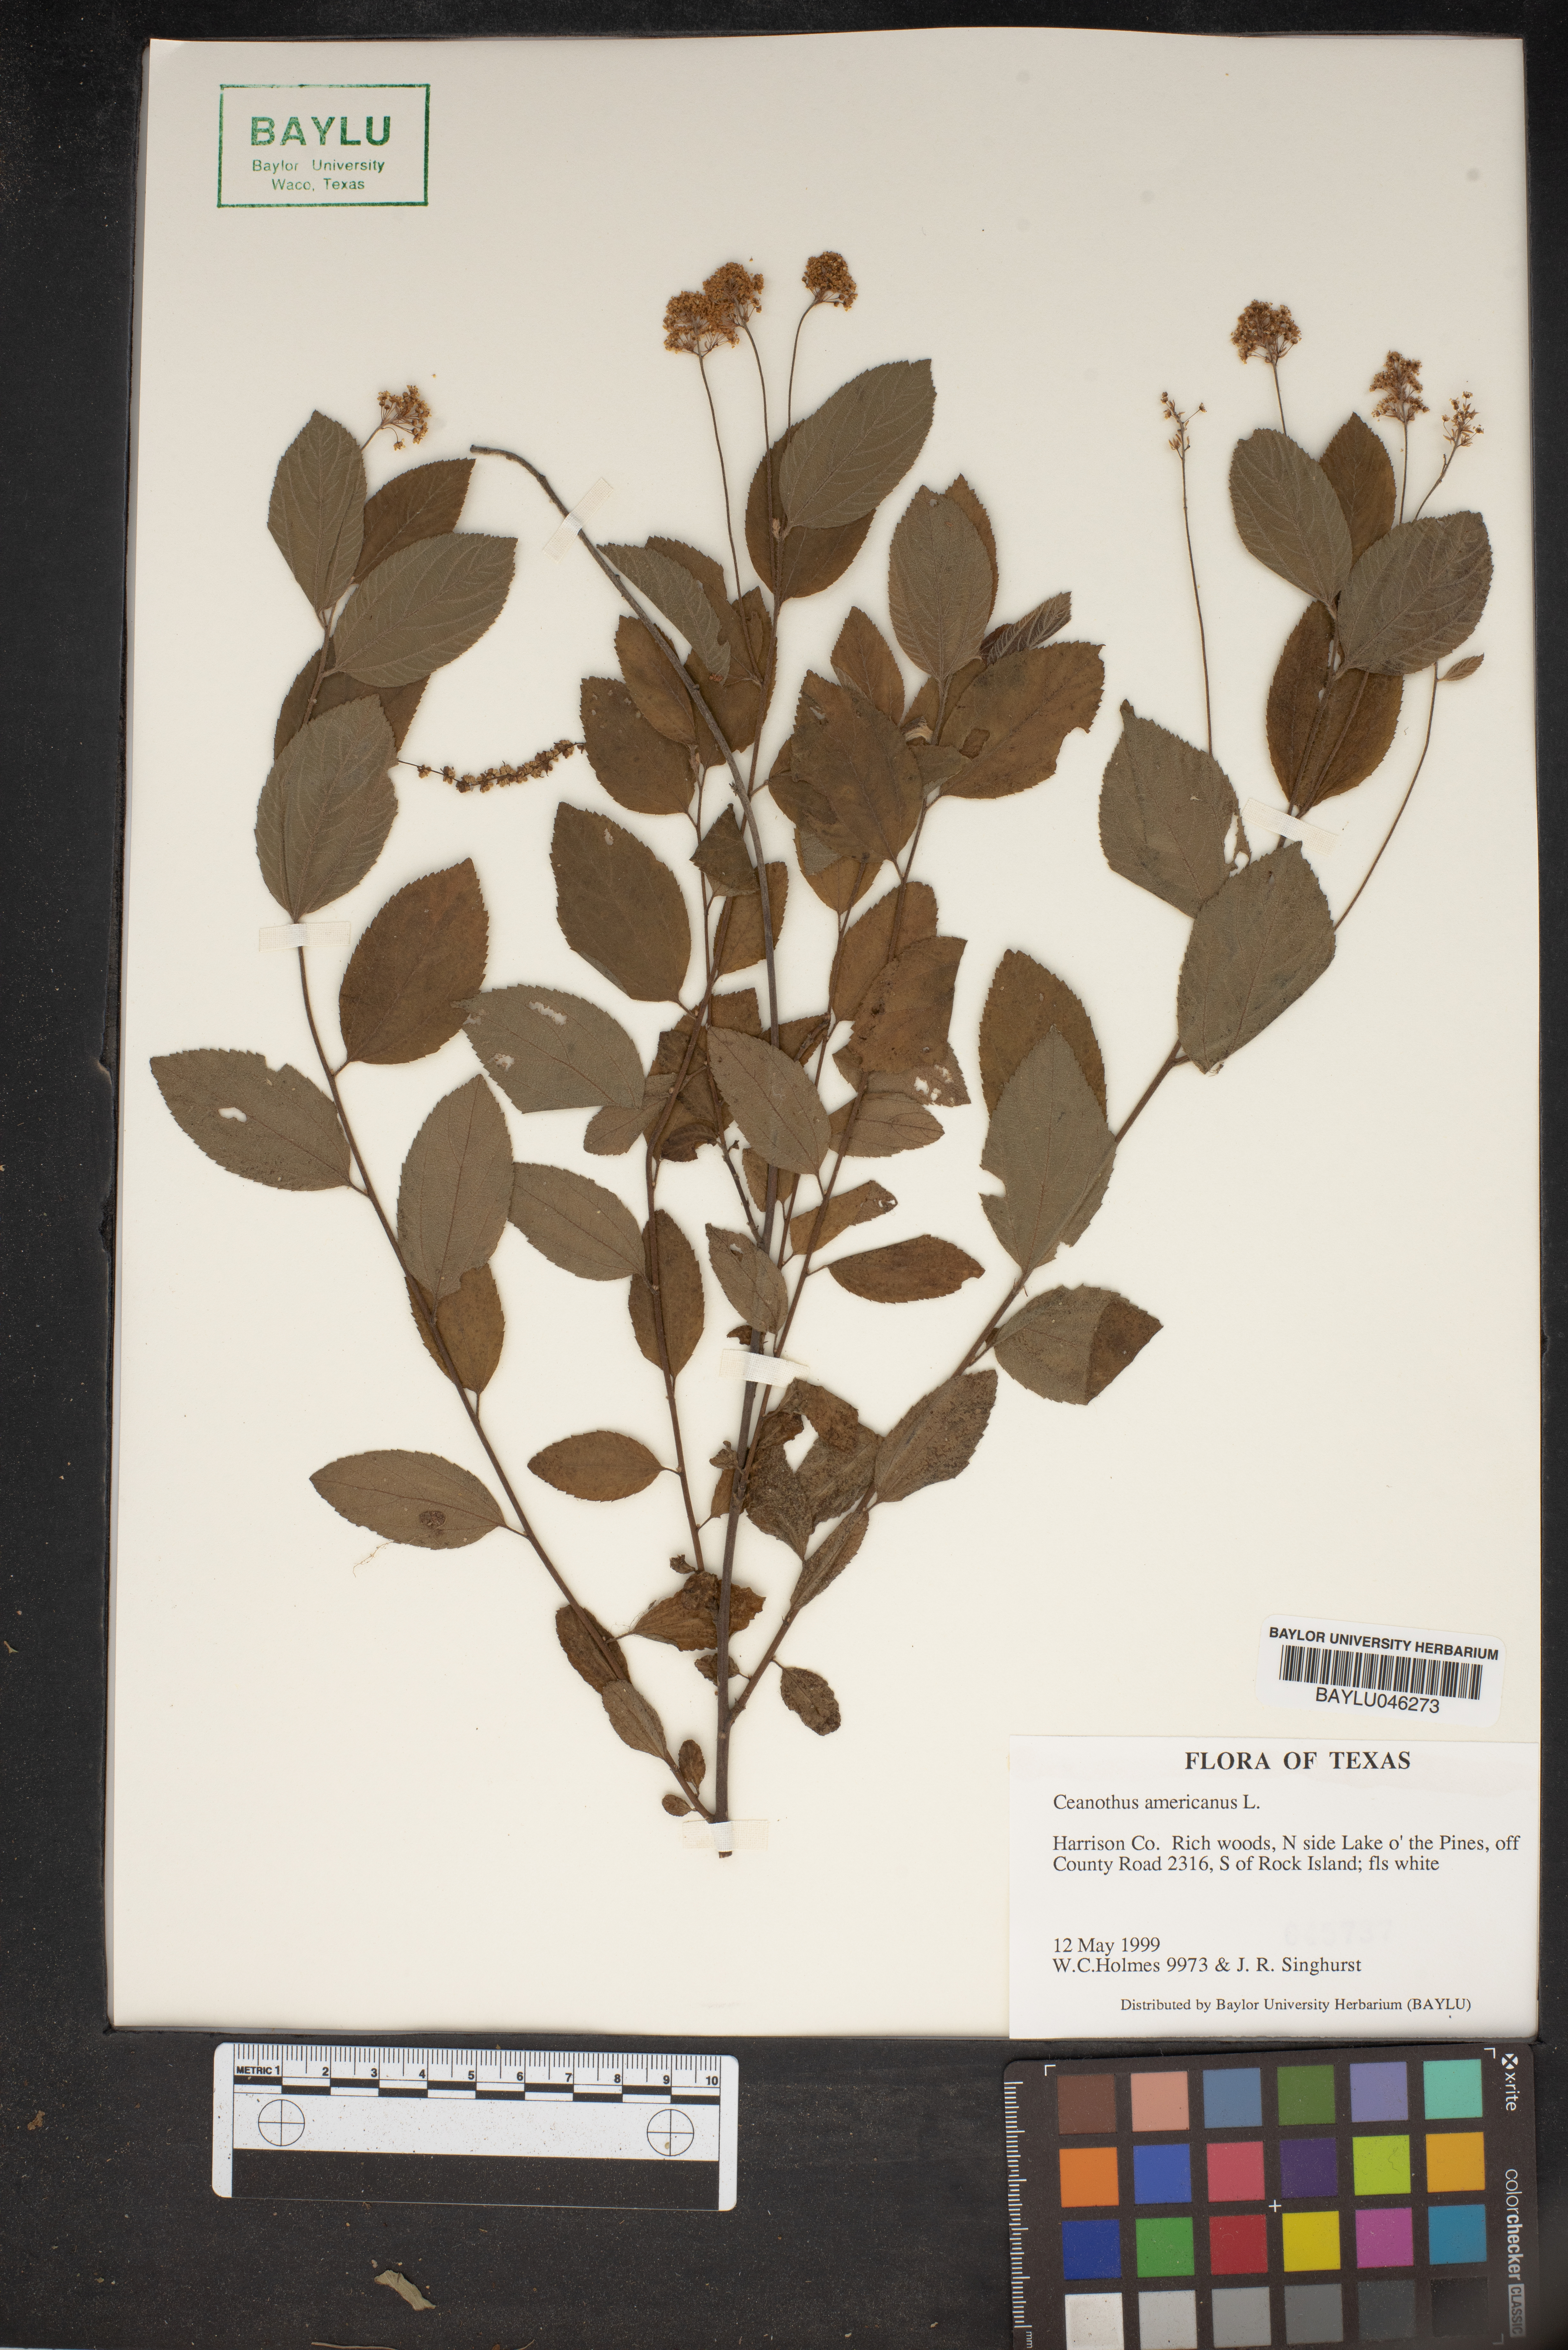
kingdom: Plantae
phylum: Tracheophyta
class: Magnoliopsida
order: Rosales
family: Rhamnaceae
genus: Ceanothus
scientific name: Ceanothus americanus
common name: Redroot
